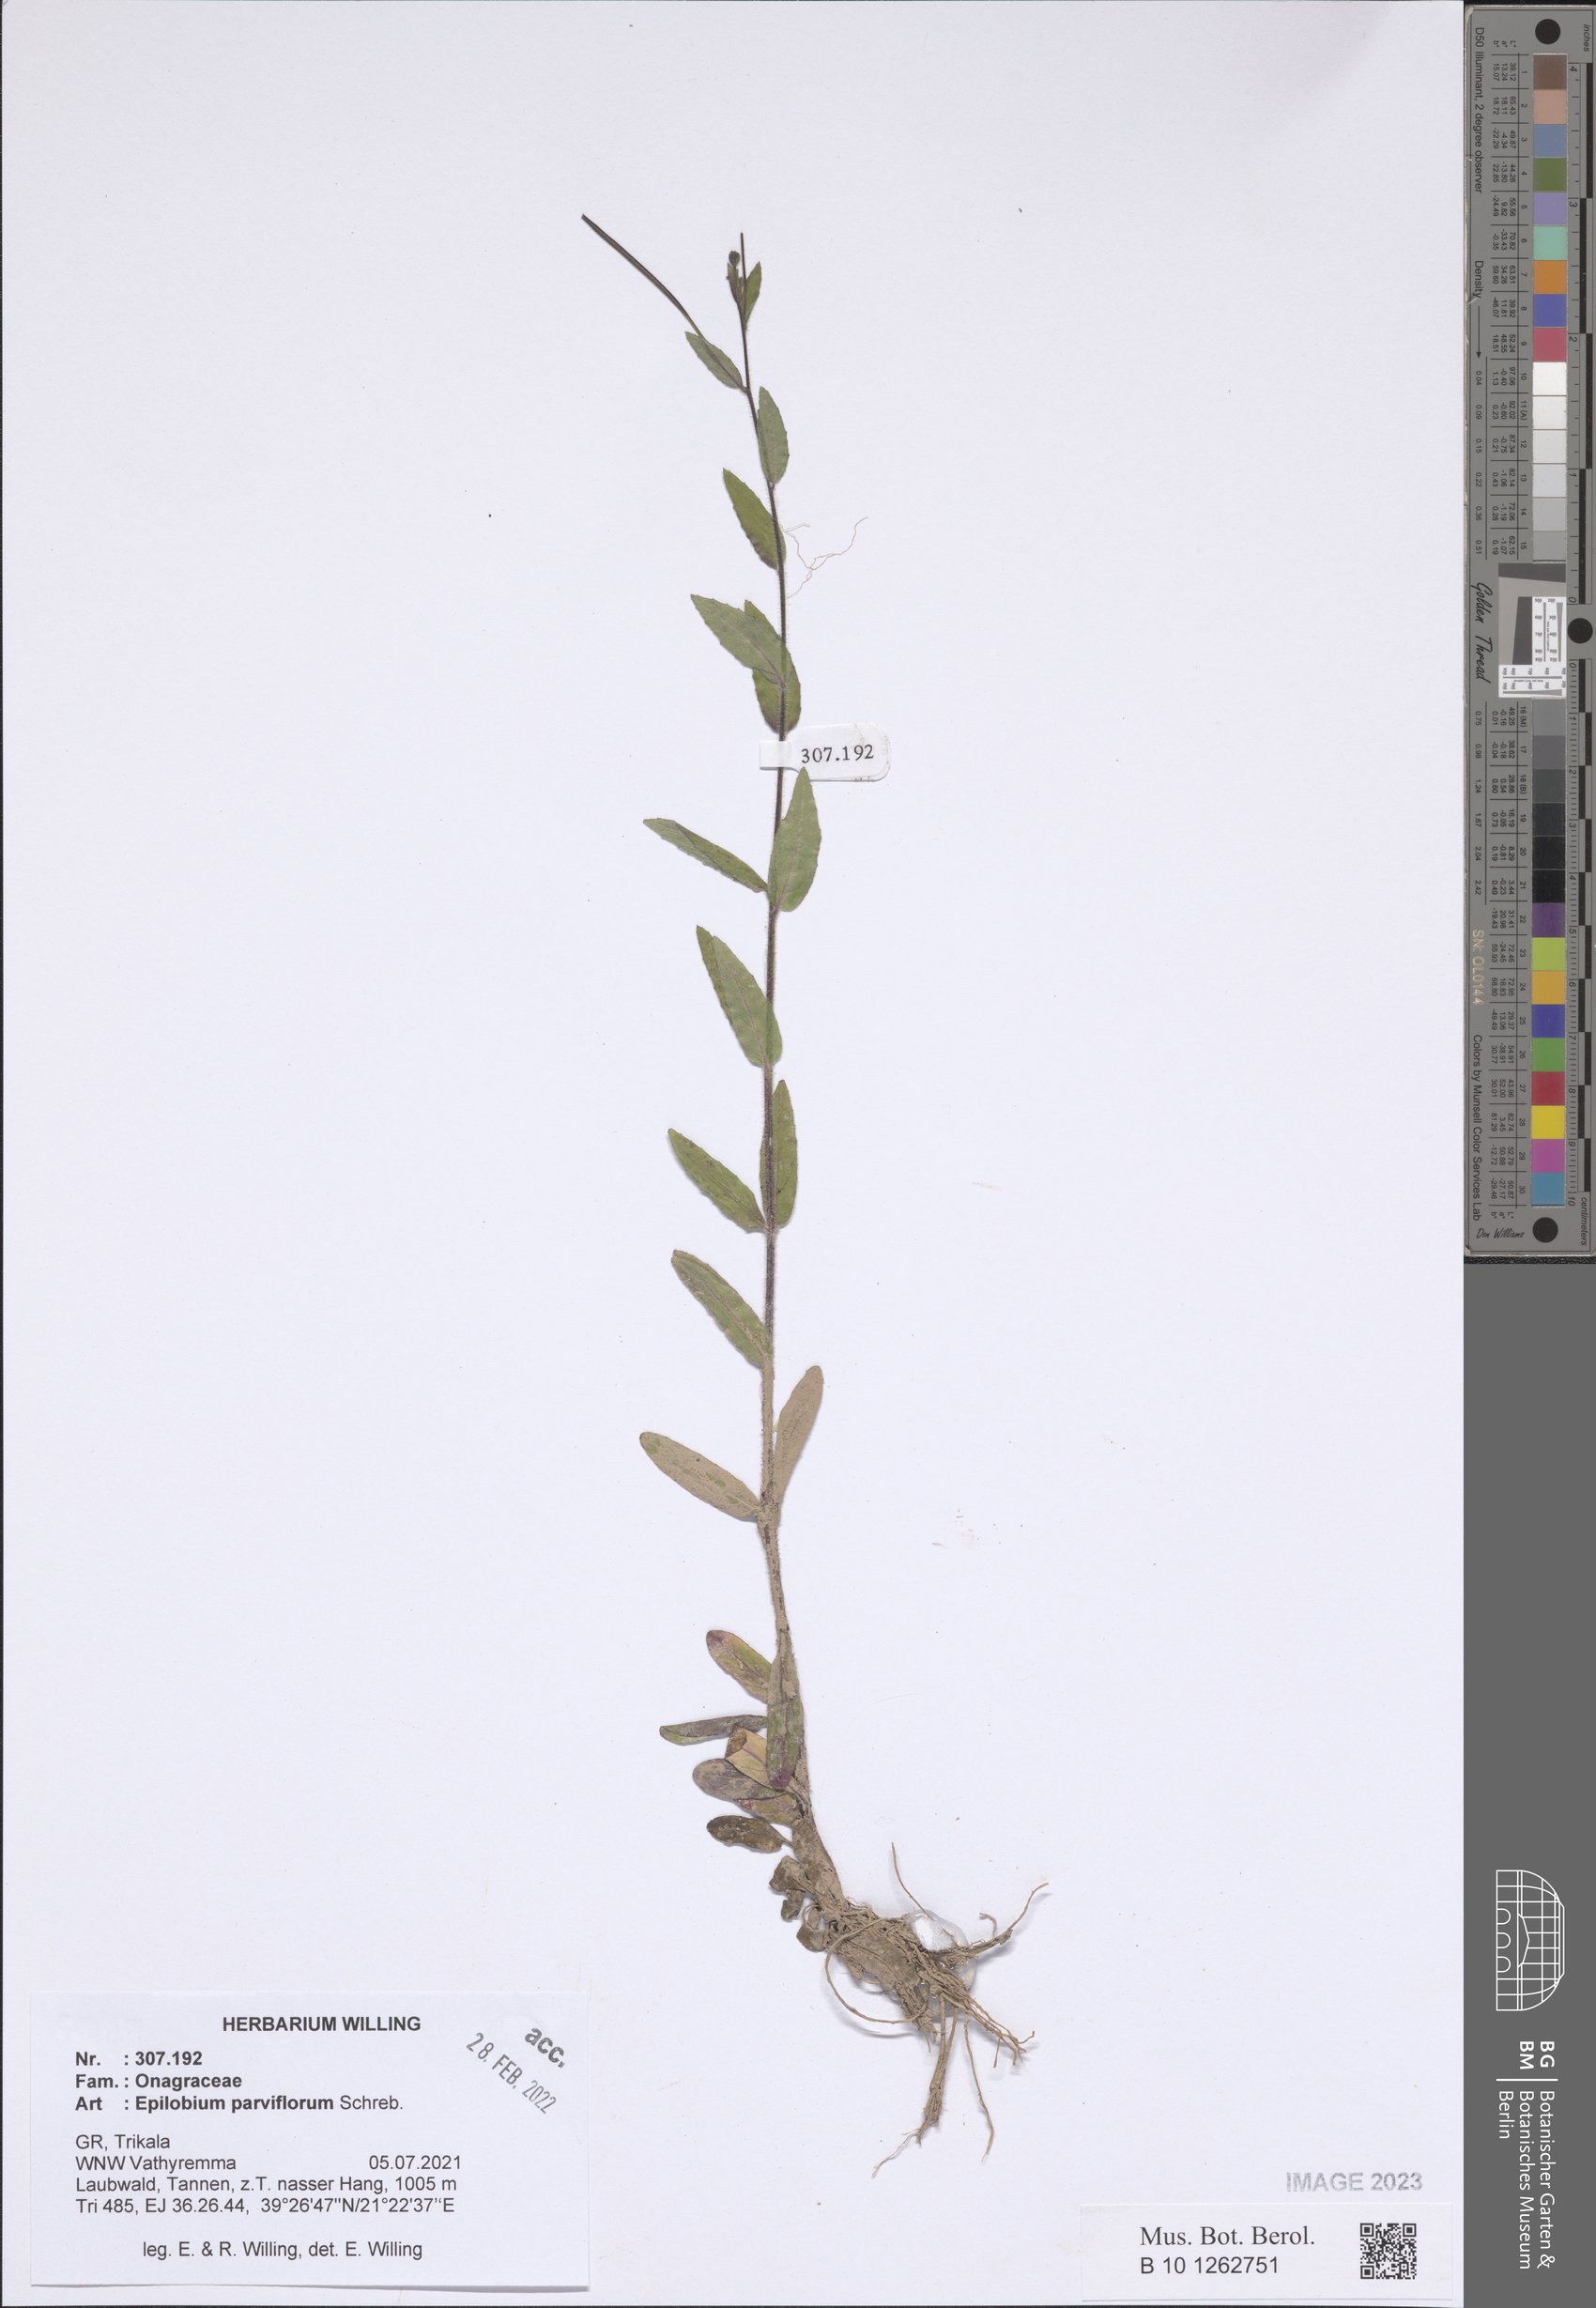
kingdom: Plantae
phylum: Tracheophyta
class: Magnoliopsida
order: Myrtales
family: Onagraceae
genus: Epilobium
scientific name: Epilobium parviflorum
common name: Hoary willowherb
